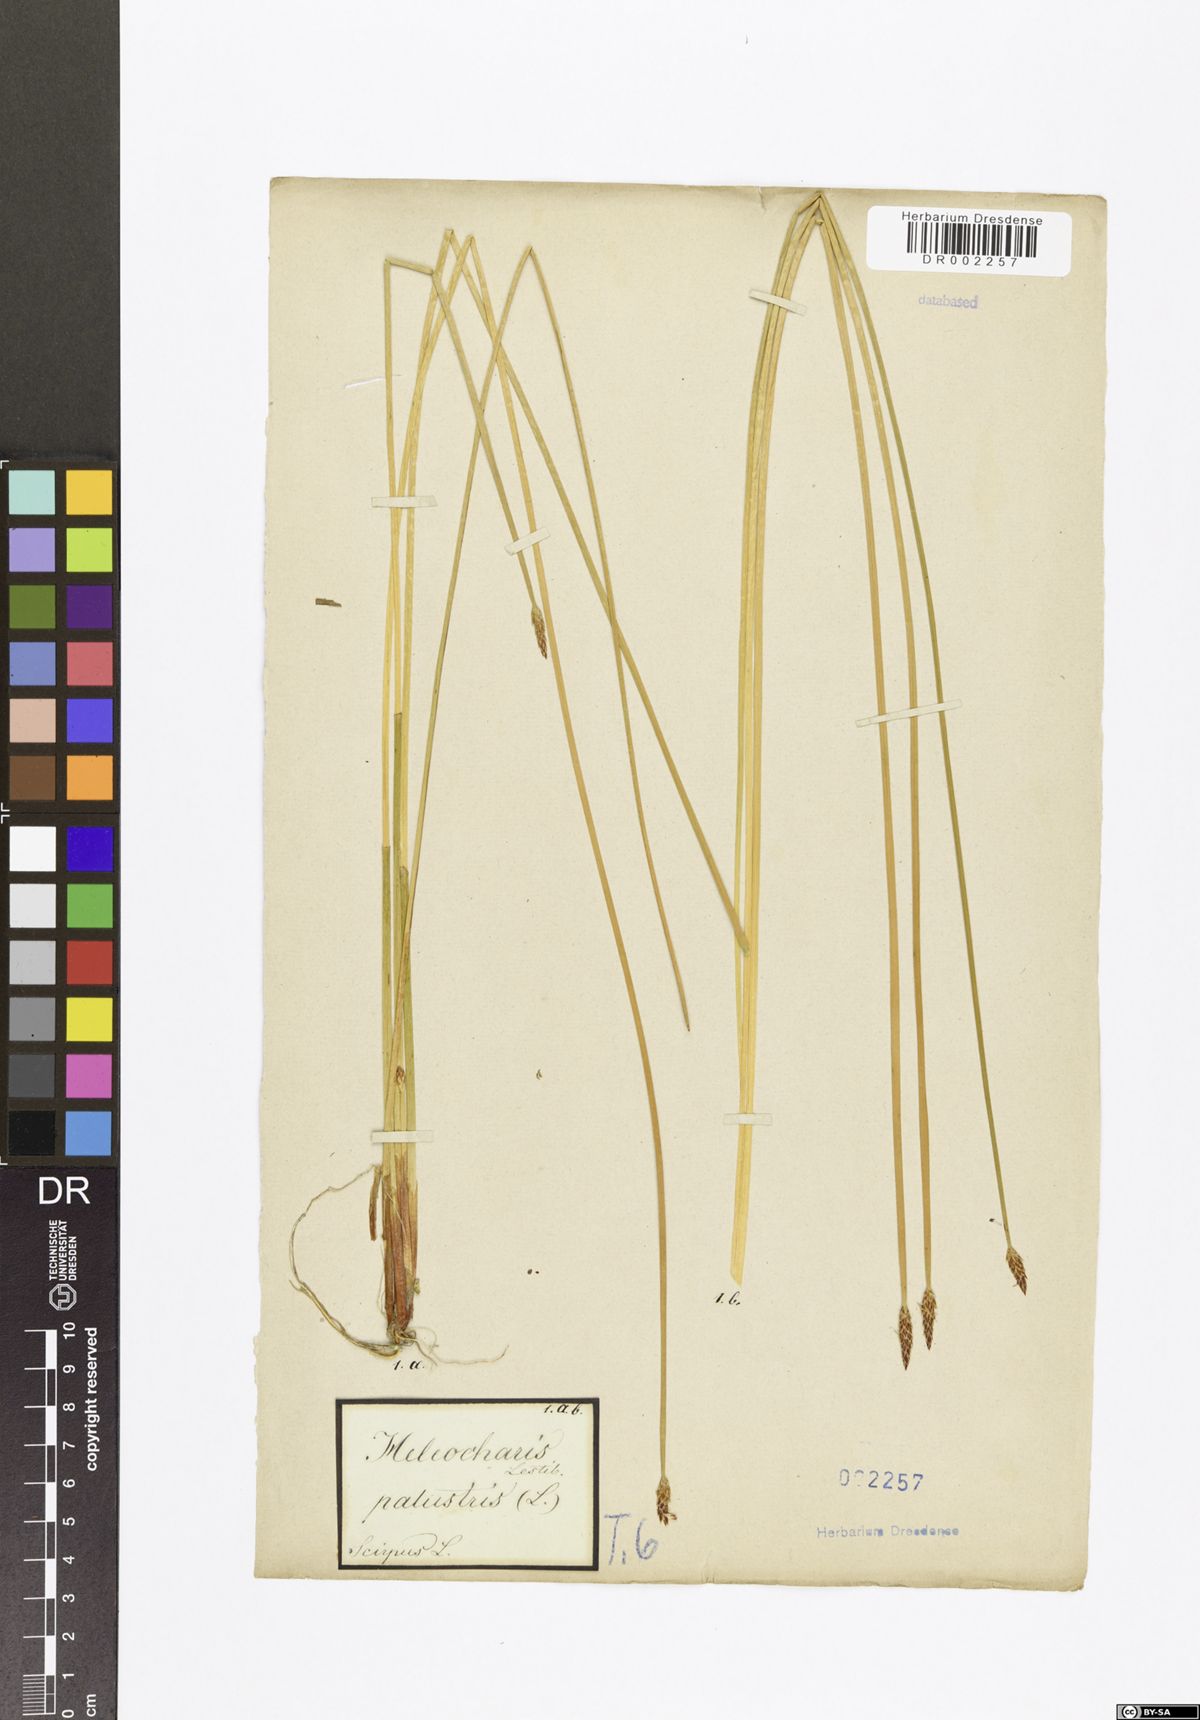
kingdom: Plantae
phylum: Tracheophyta
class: Liliopsida
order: Poales
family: Cyperaceae
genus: Eleocharis
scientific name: Eleocharis palustris
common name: Common spike-rush
